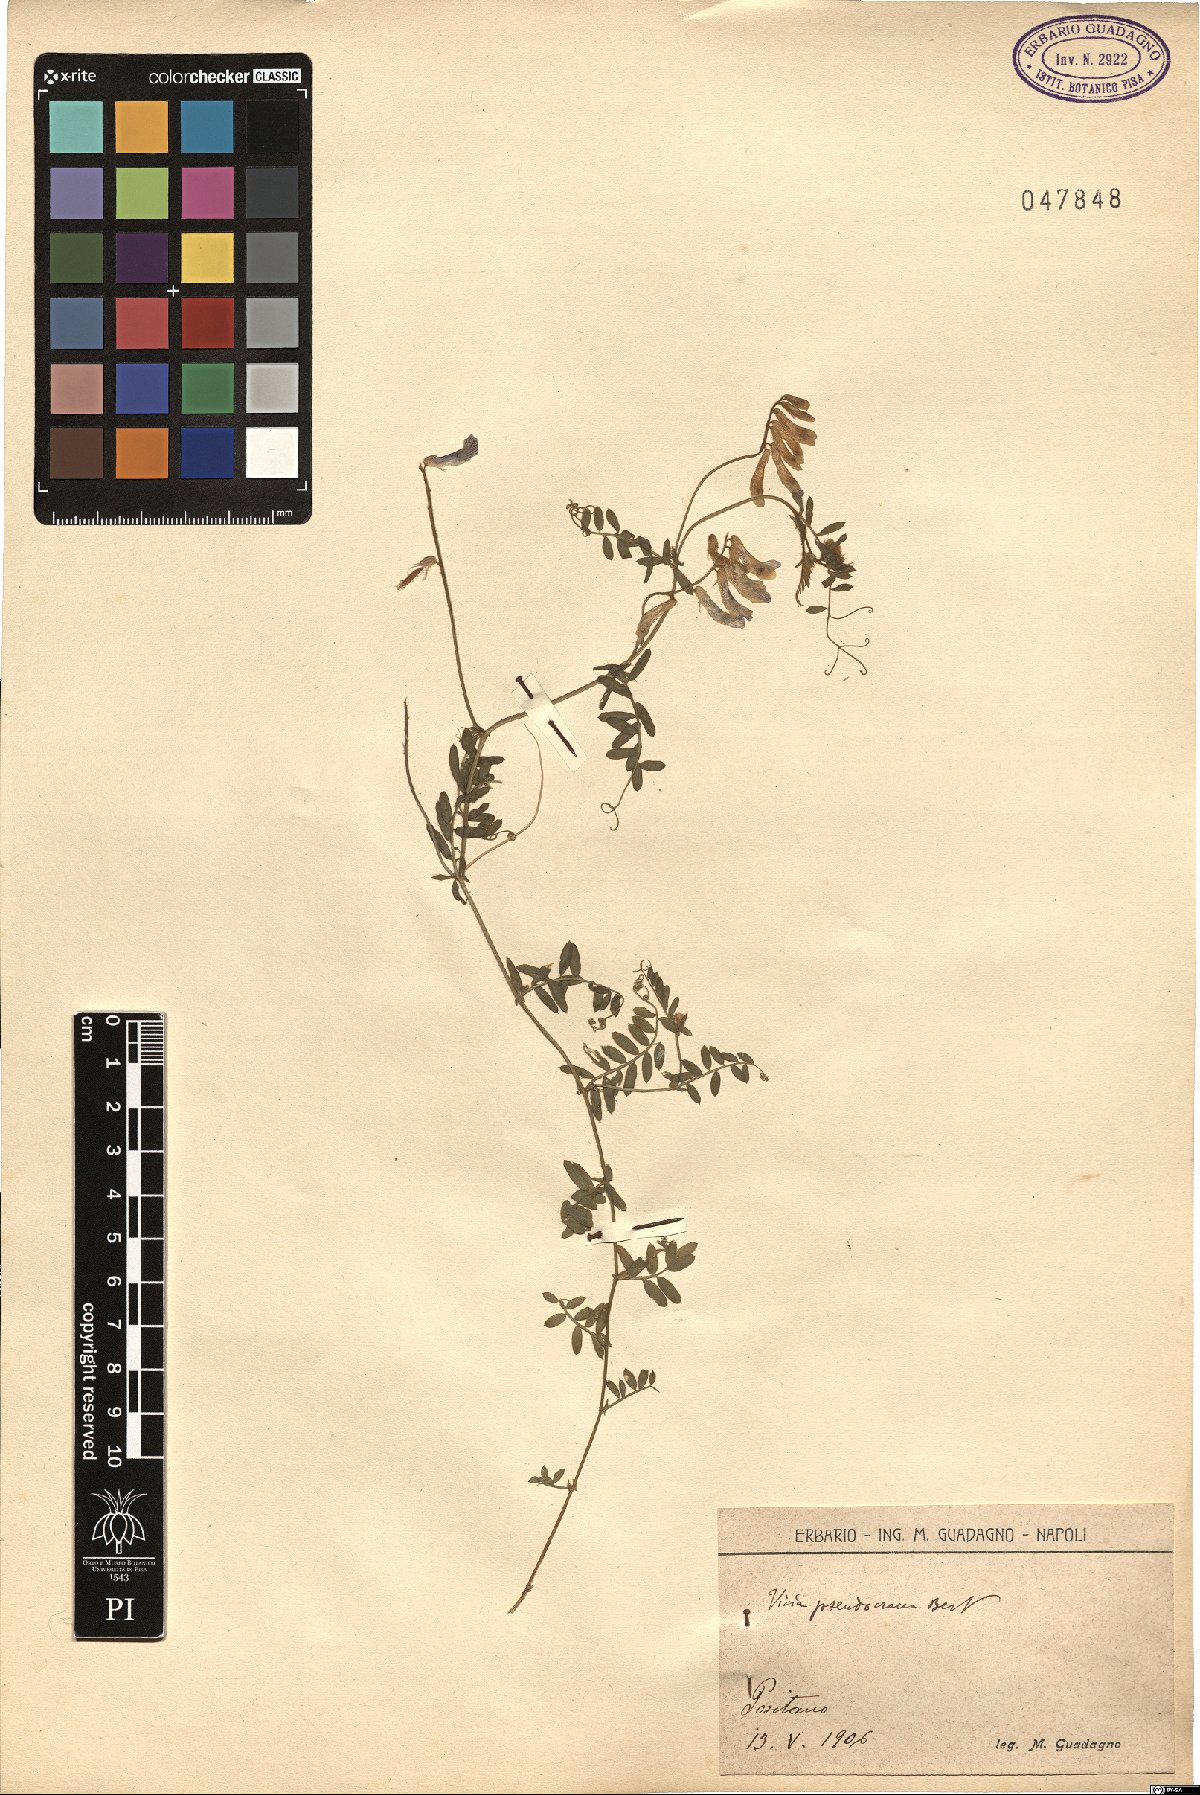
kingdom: Plantae
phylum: Tracheophyta
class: Magnoliopsida
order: Fabales
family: Fabaceae
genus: Vicia
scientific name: Vicia villosa
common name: Fodder vetch
